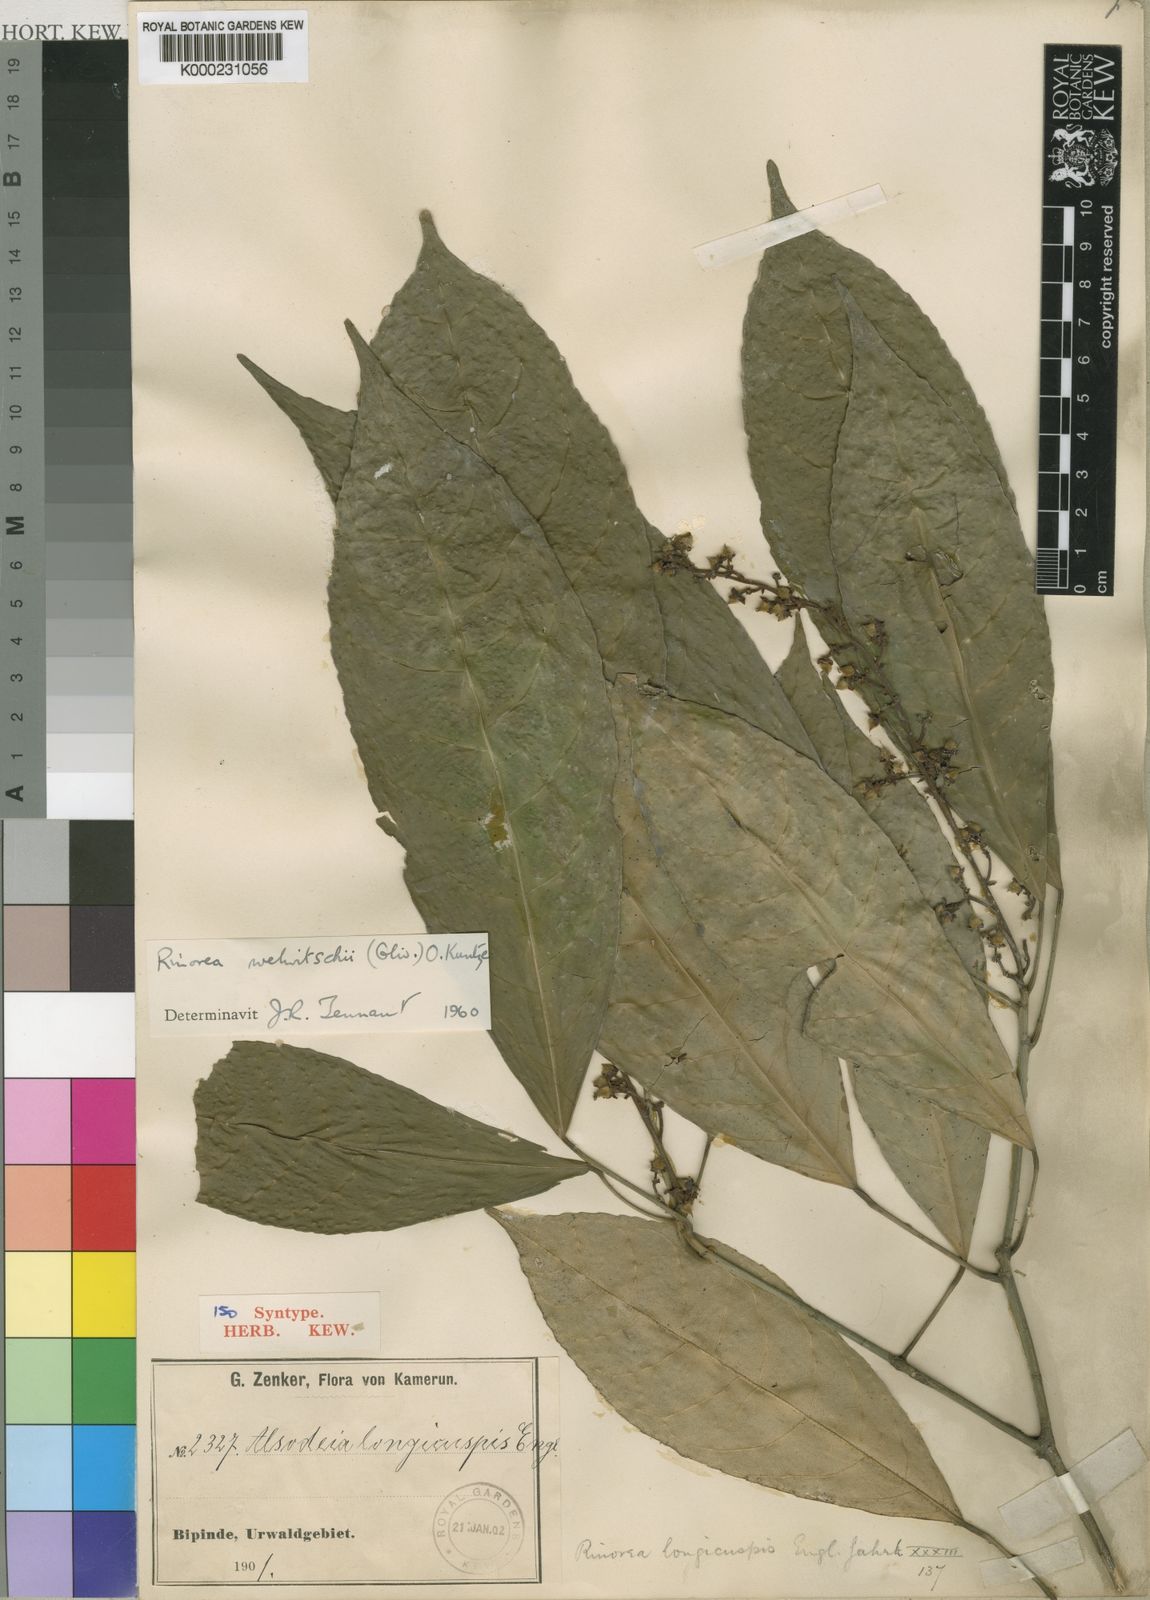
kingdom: Plantae
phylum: Tracheophyta
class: Magnoliopsida
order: Malpighiales
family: Violaceae
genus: Rinorea
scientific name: Rinorea welwitschii
